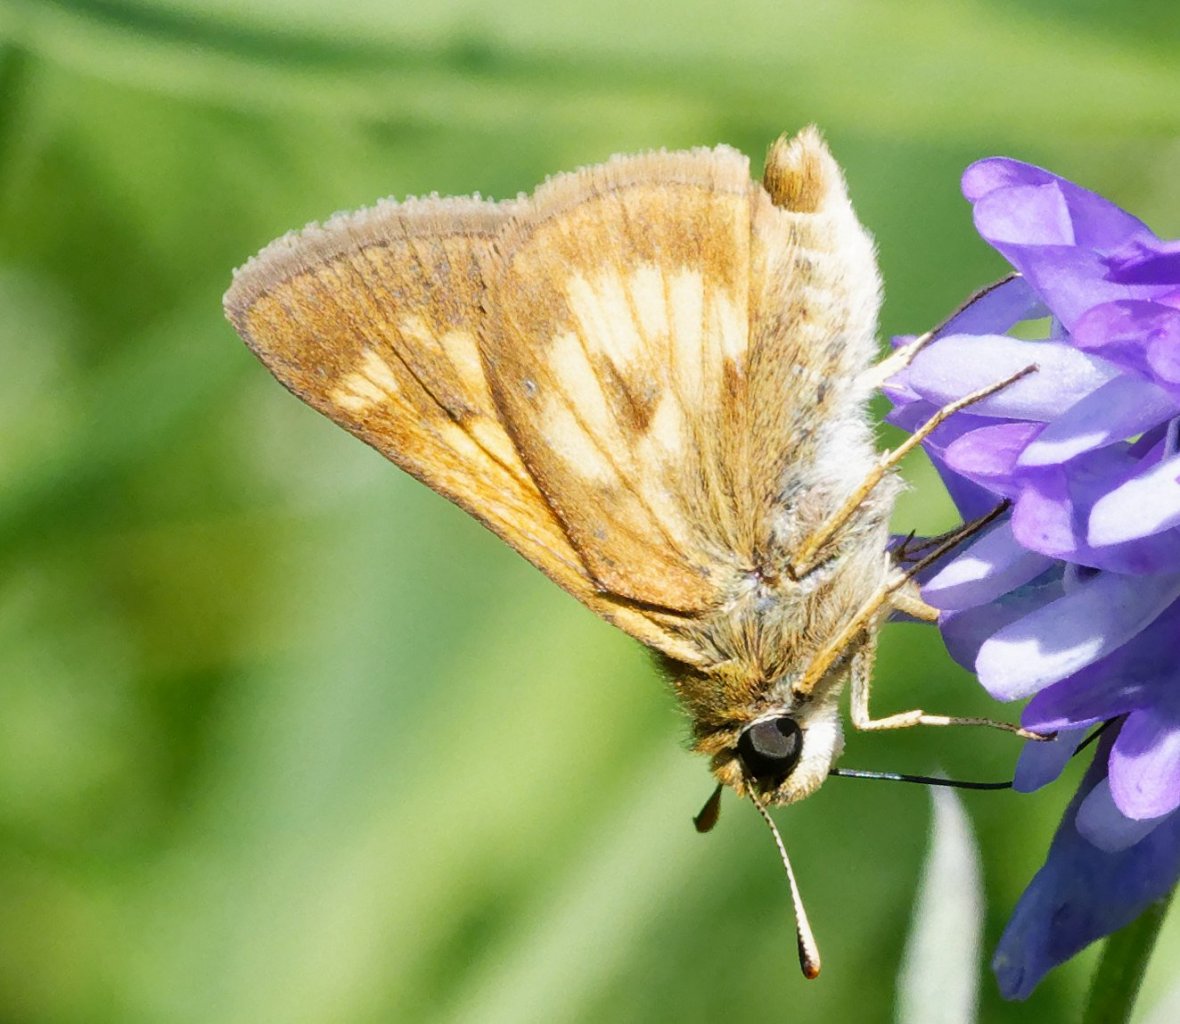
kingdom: Animalia
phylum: Arthropoda
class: Insecta
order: Lepidoptera
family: Hesperiidae
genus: Polites
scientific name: Polites
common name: Long Dash Skipper
